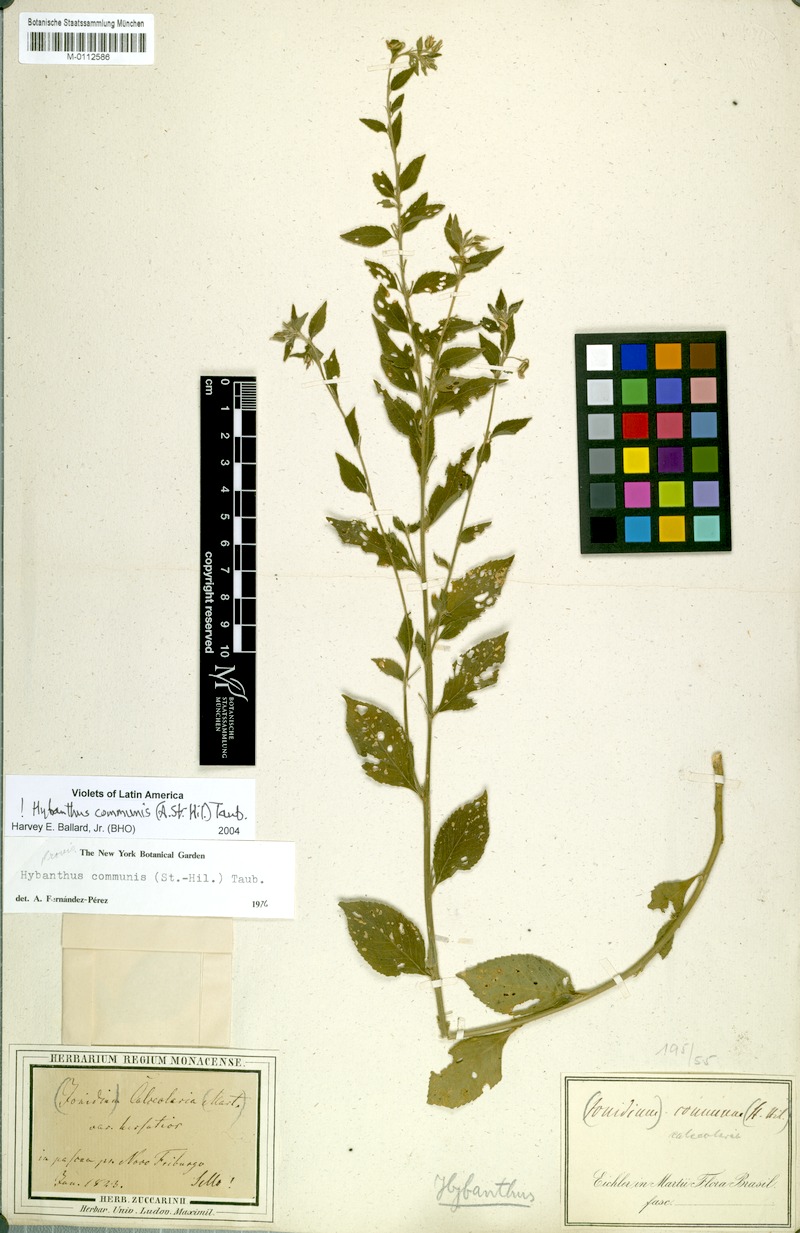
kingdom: Plantae
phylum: Tracheophyta
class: Magnoliopsida
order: Malpighiales
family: Violaceae
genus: Pombalia
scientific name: Pombalia communis
